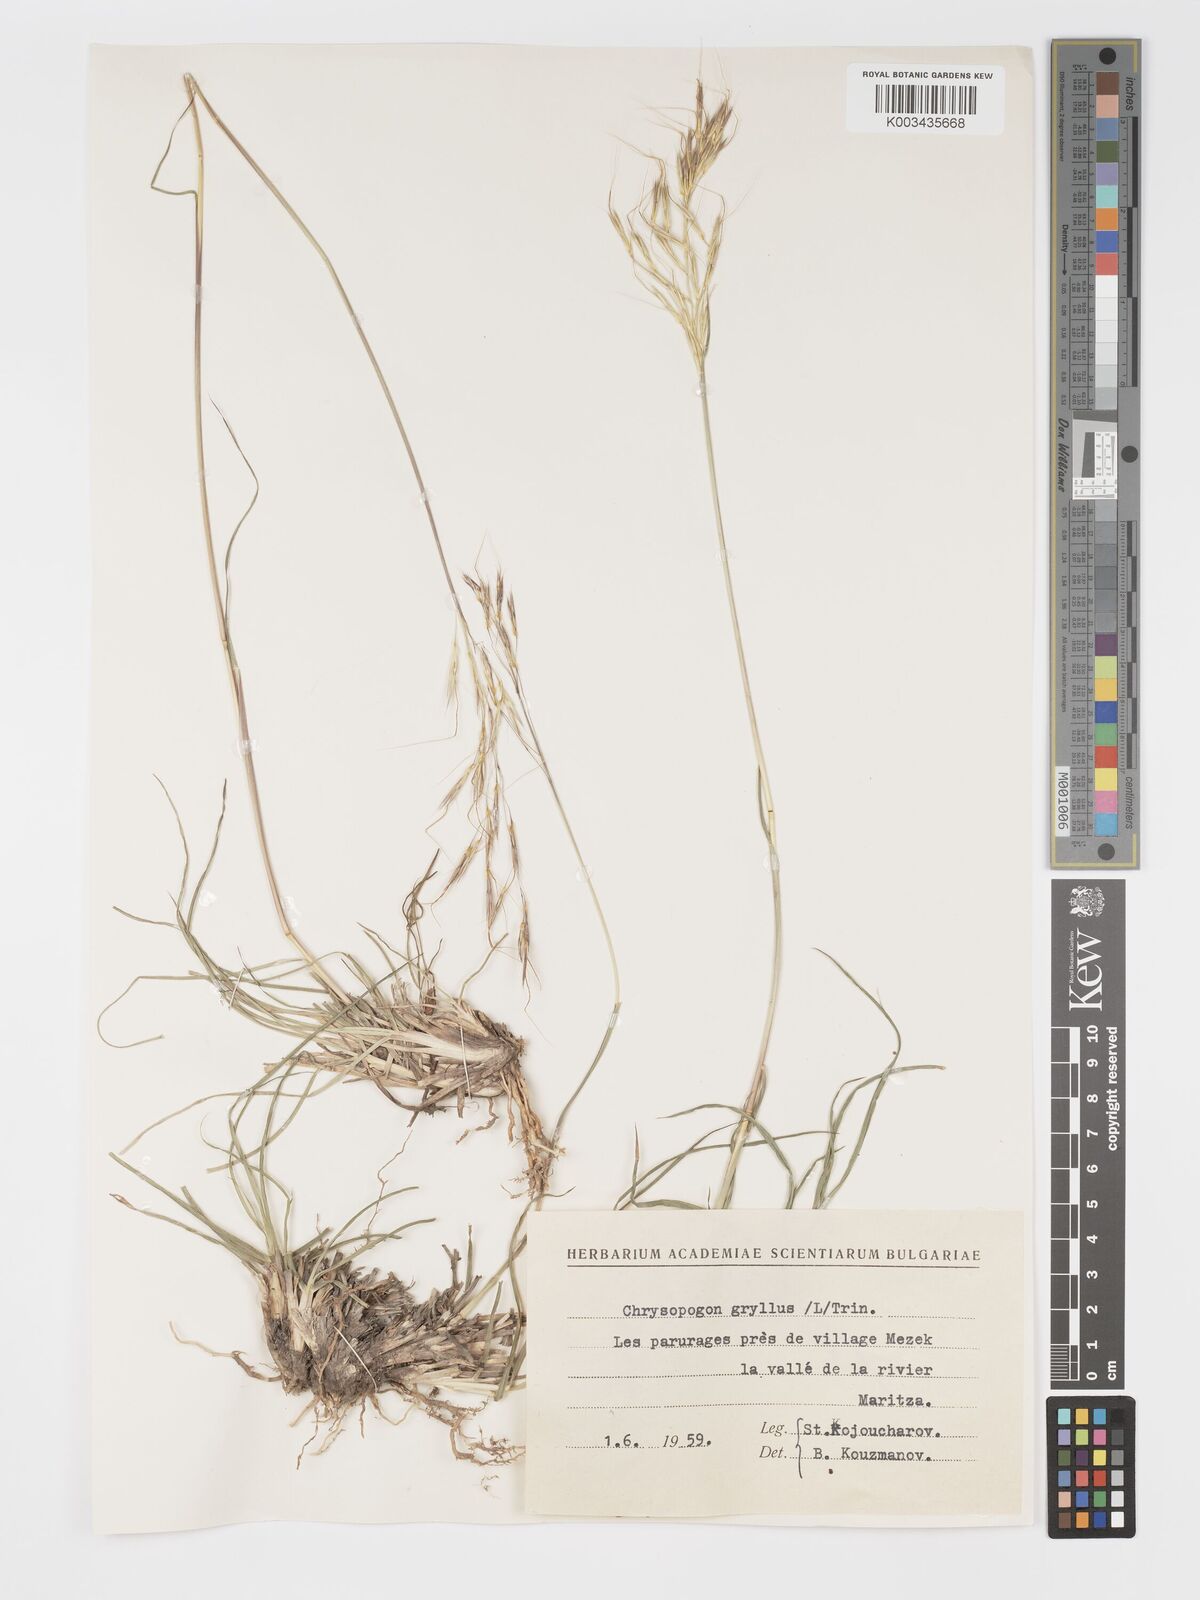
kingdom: Plantae
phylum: Tracheophyta
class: Liliopsida
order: Poales
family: Poaceae
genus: Chrysopogon
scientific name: Chrysopogon gryllus
